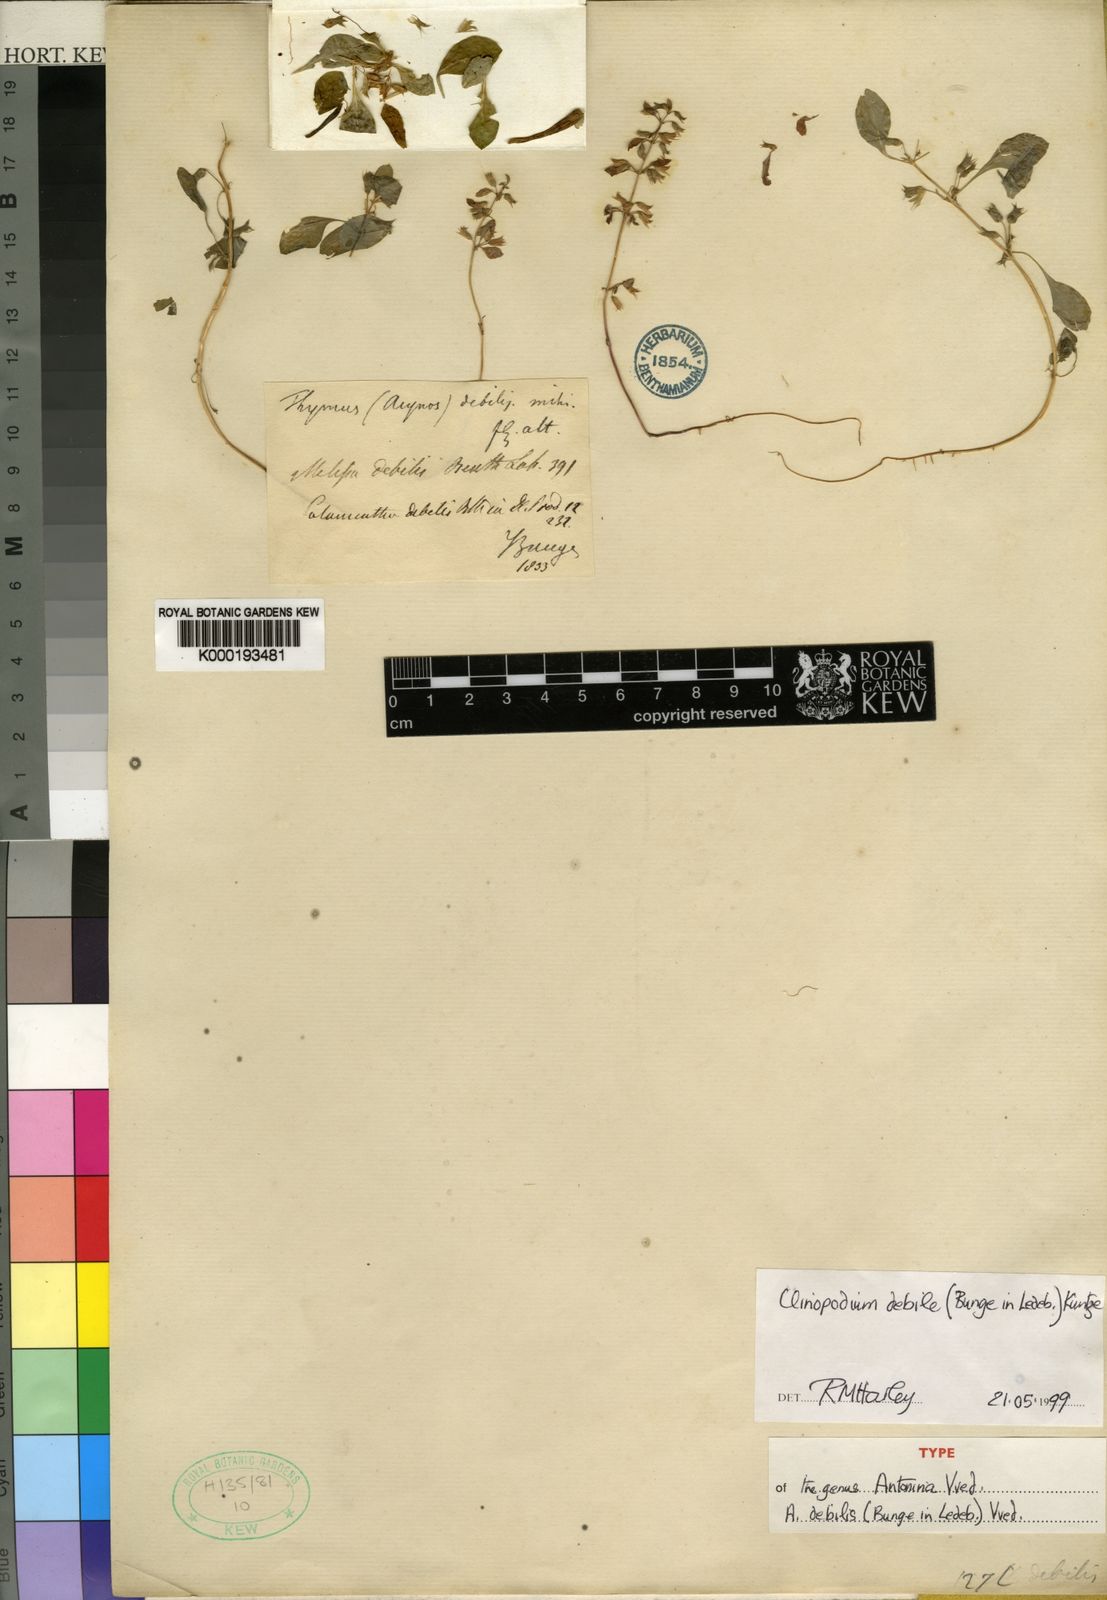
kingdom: Plantae
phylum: Tracheophyta
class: Magnoliopsida
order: Lamiales
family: Lamiaceae
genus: Clinopodium
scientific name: Clinopodium debile
